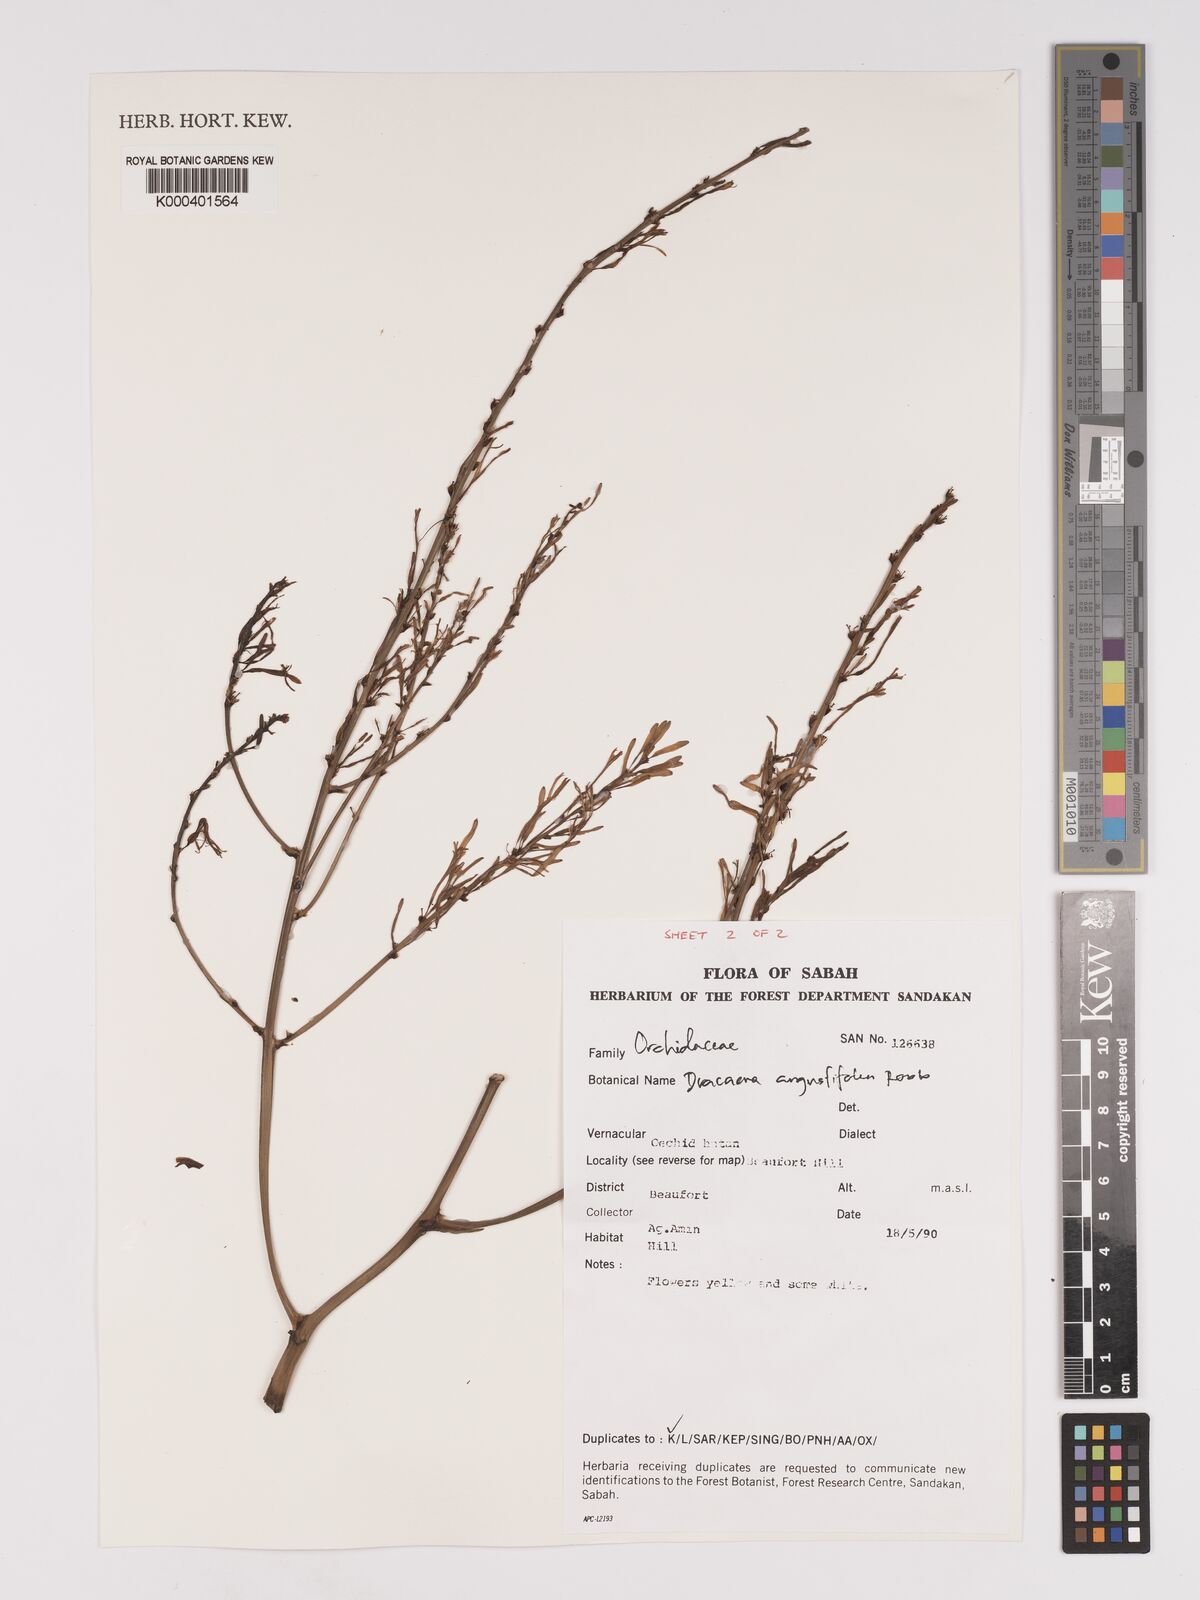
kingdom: Plantae
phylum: Tracheophyta
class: Liliopsida
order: Asparagales
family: Asparagaceae
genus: Dracaena
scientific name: Dracaena angustifolia
